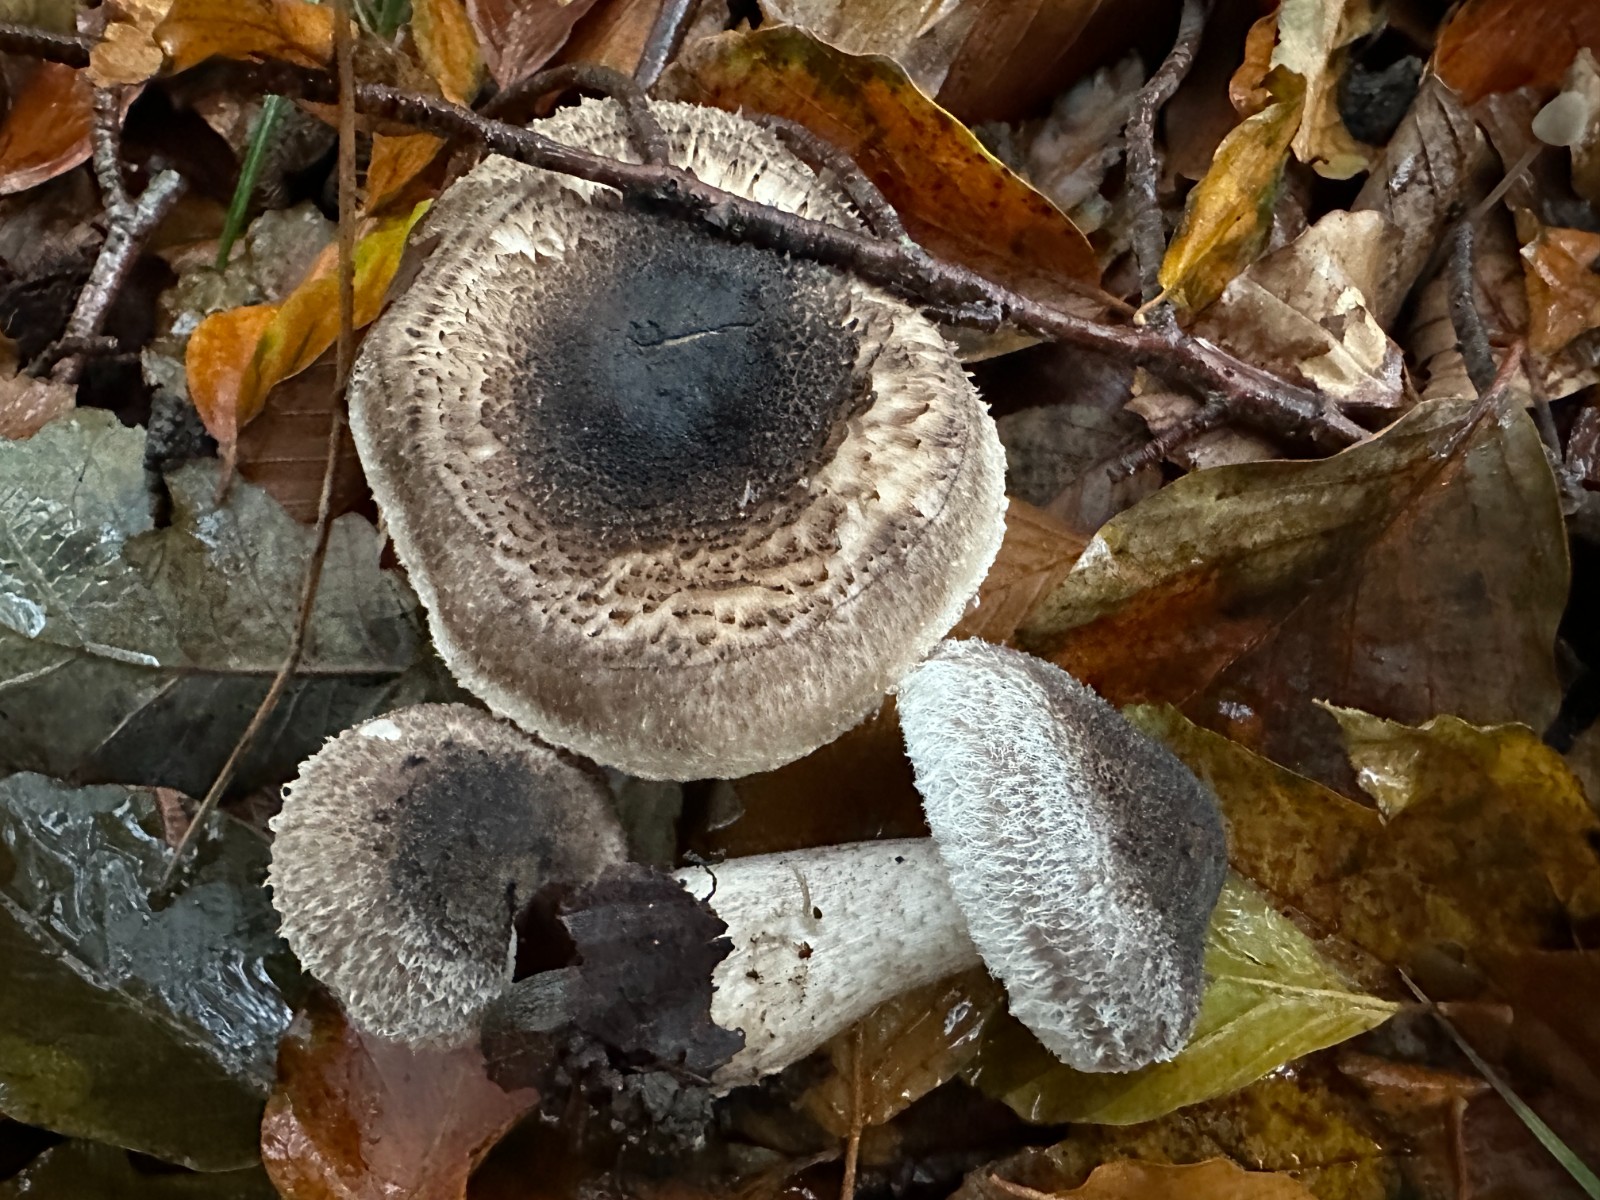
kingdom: Fungi
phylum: Basidiomycota
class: Agaricomycetes
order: Agaricales
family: Tricholomataceae
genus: Tricholoma
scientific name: Tricholoma atrosquamosum
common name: sortskællet ridderhat
